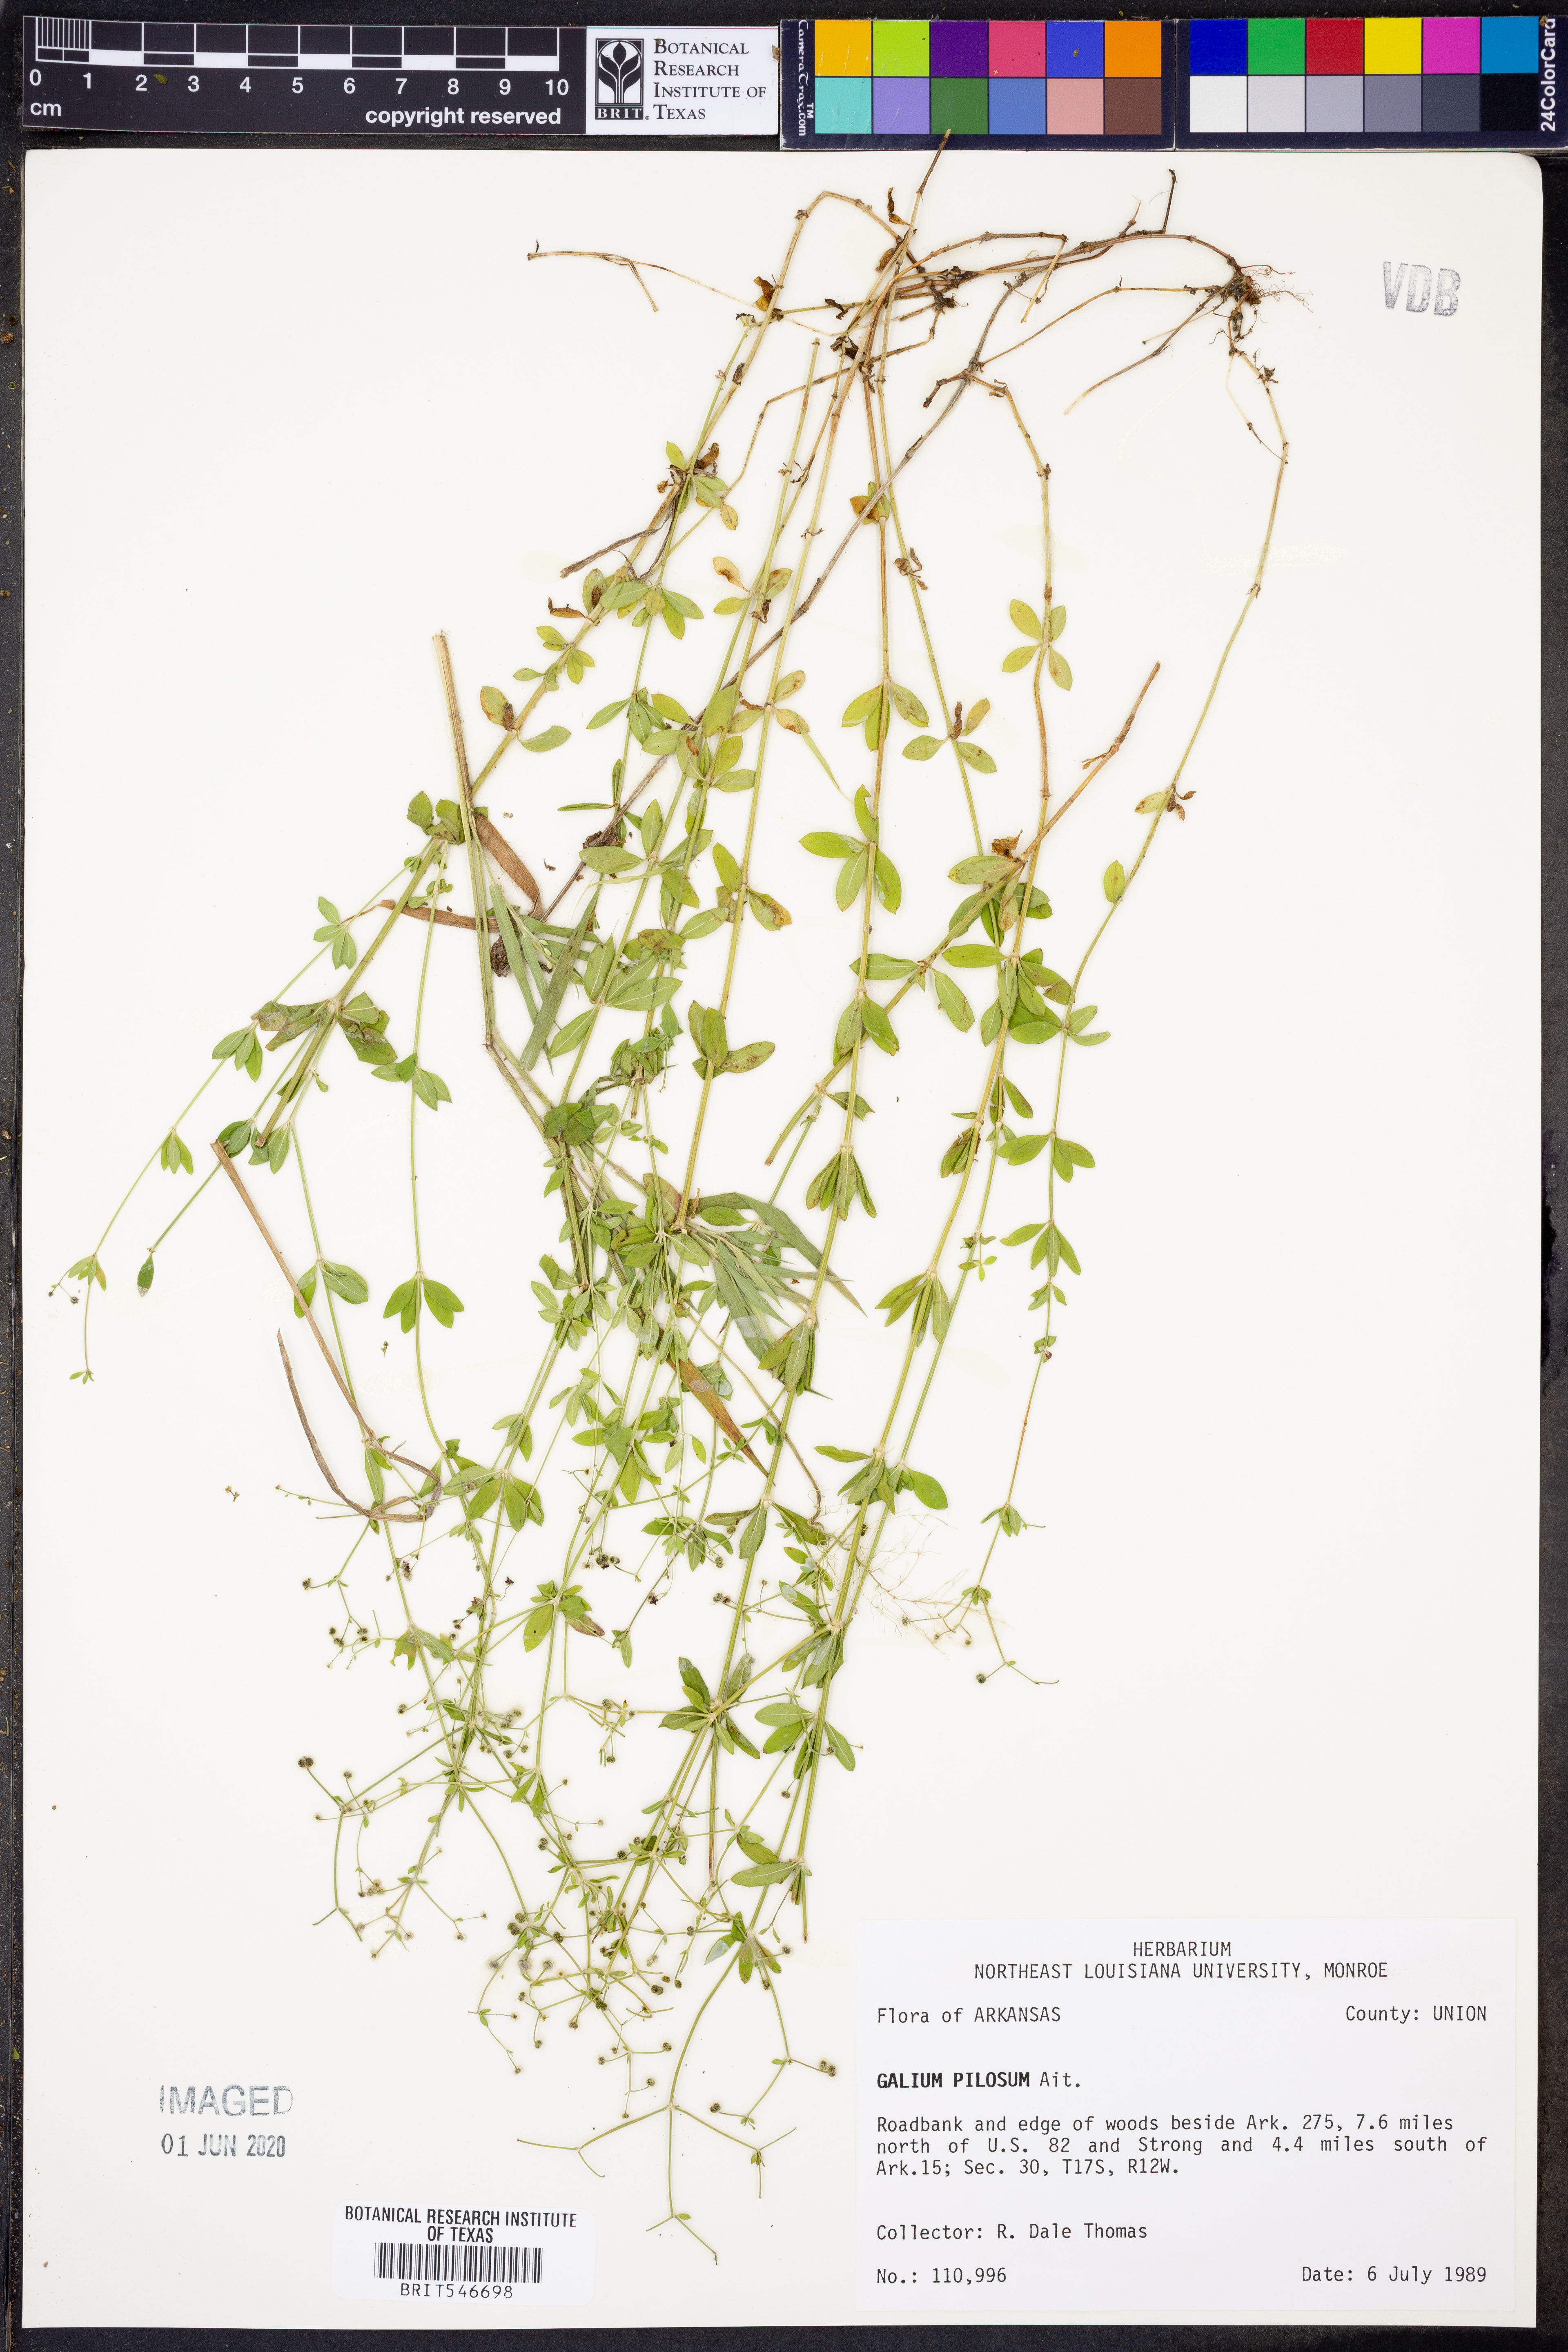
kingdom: Plantae
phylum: Tracheophyta
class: Magnoliopsida
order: Gentianales
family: Rubiaceae
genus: Galium
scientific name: Galium pilosum
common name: Hairy bedstraw
